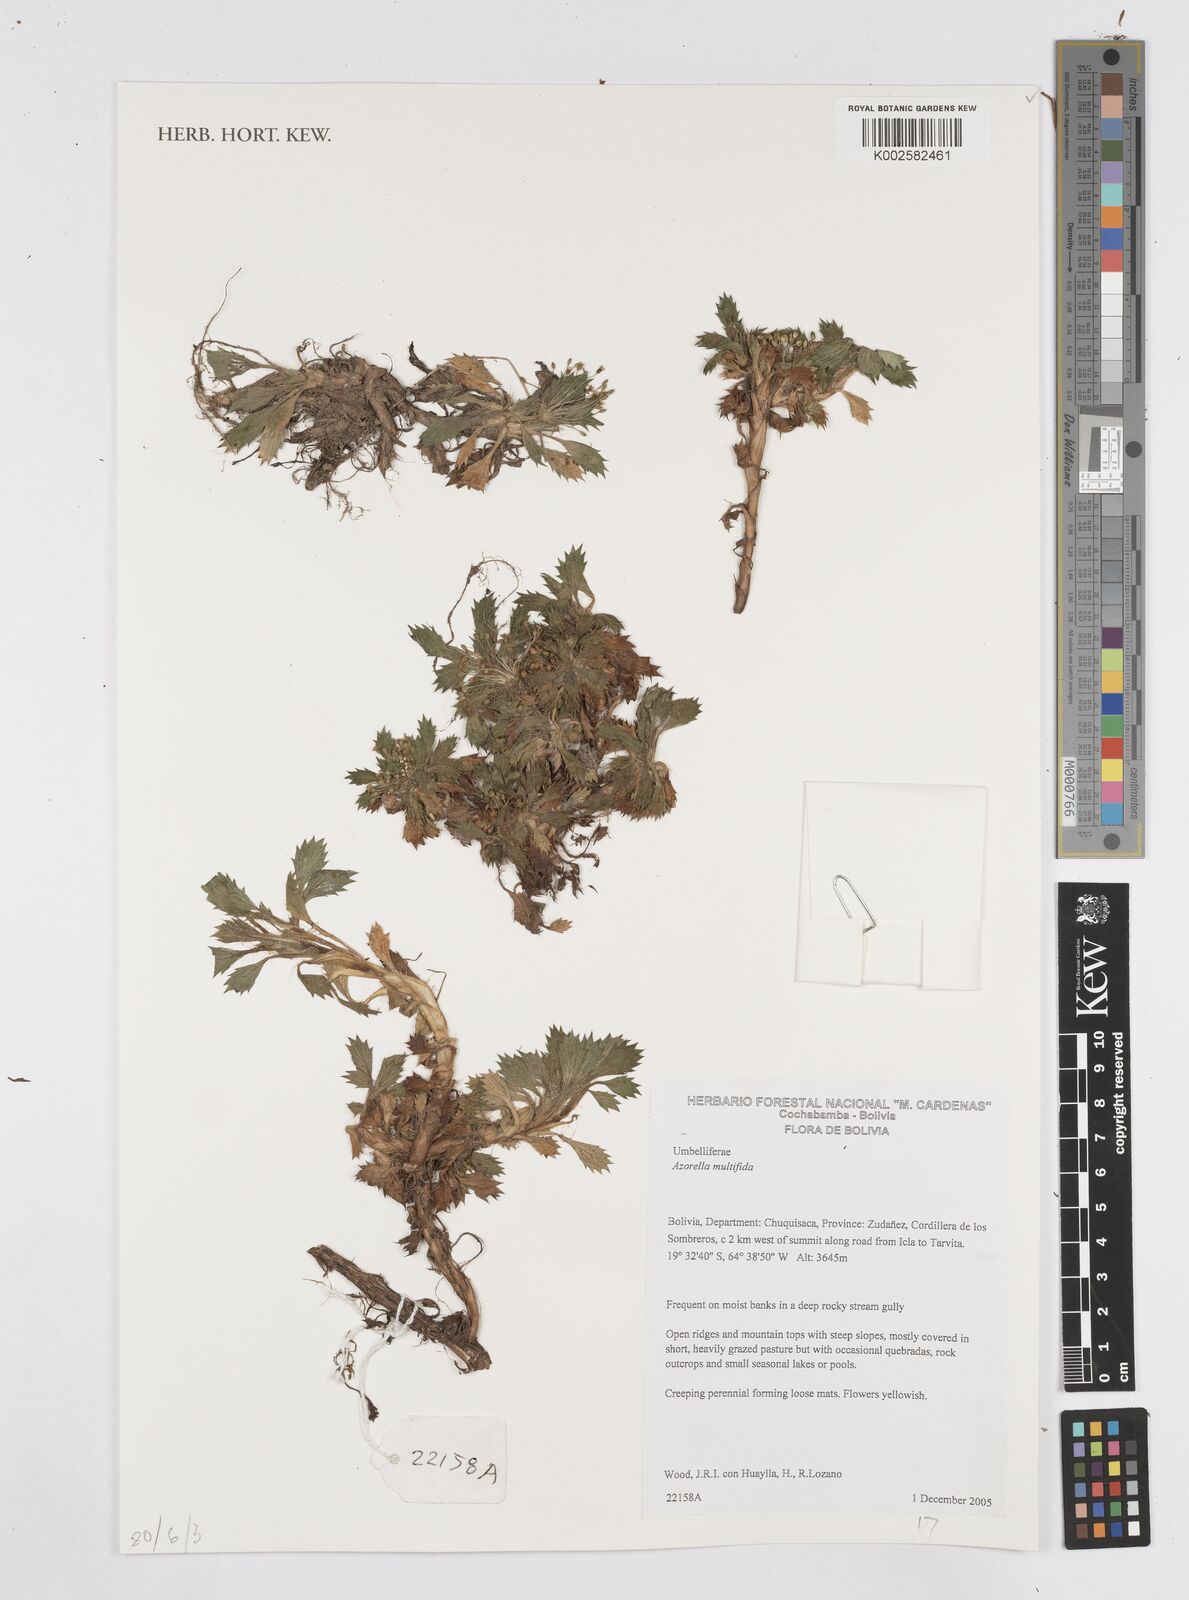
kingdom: Plantae
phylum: Tracheophyta
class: Magnoliopsida
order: Apiales
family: Apiaceae
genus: Azorella
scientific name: Azorella multifida
